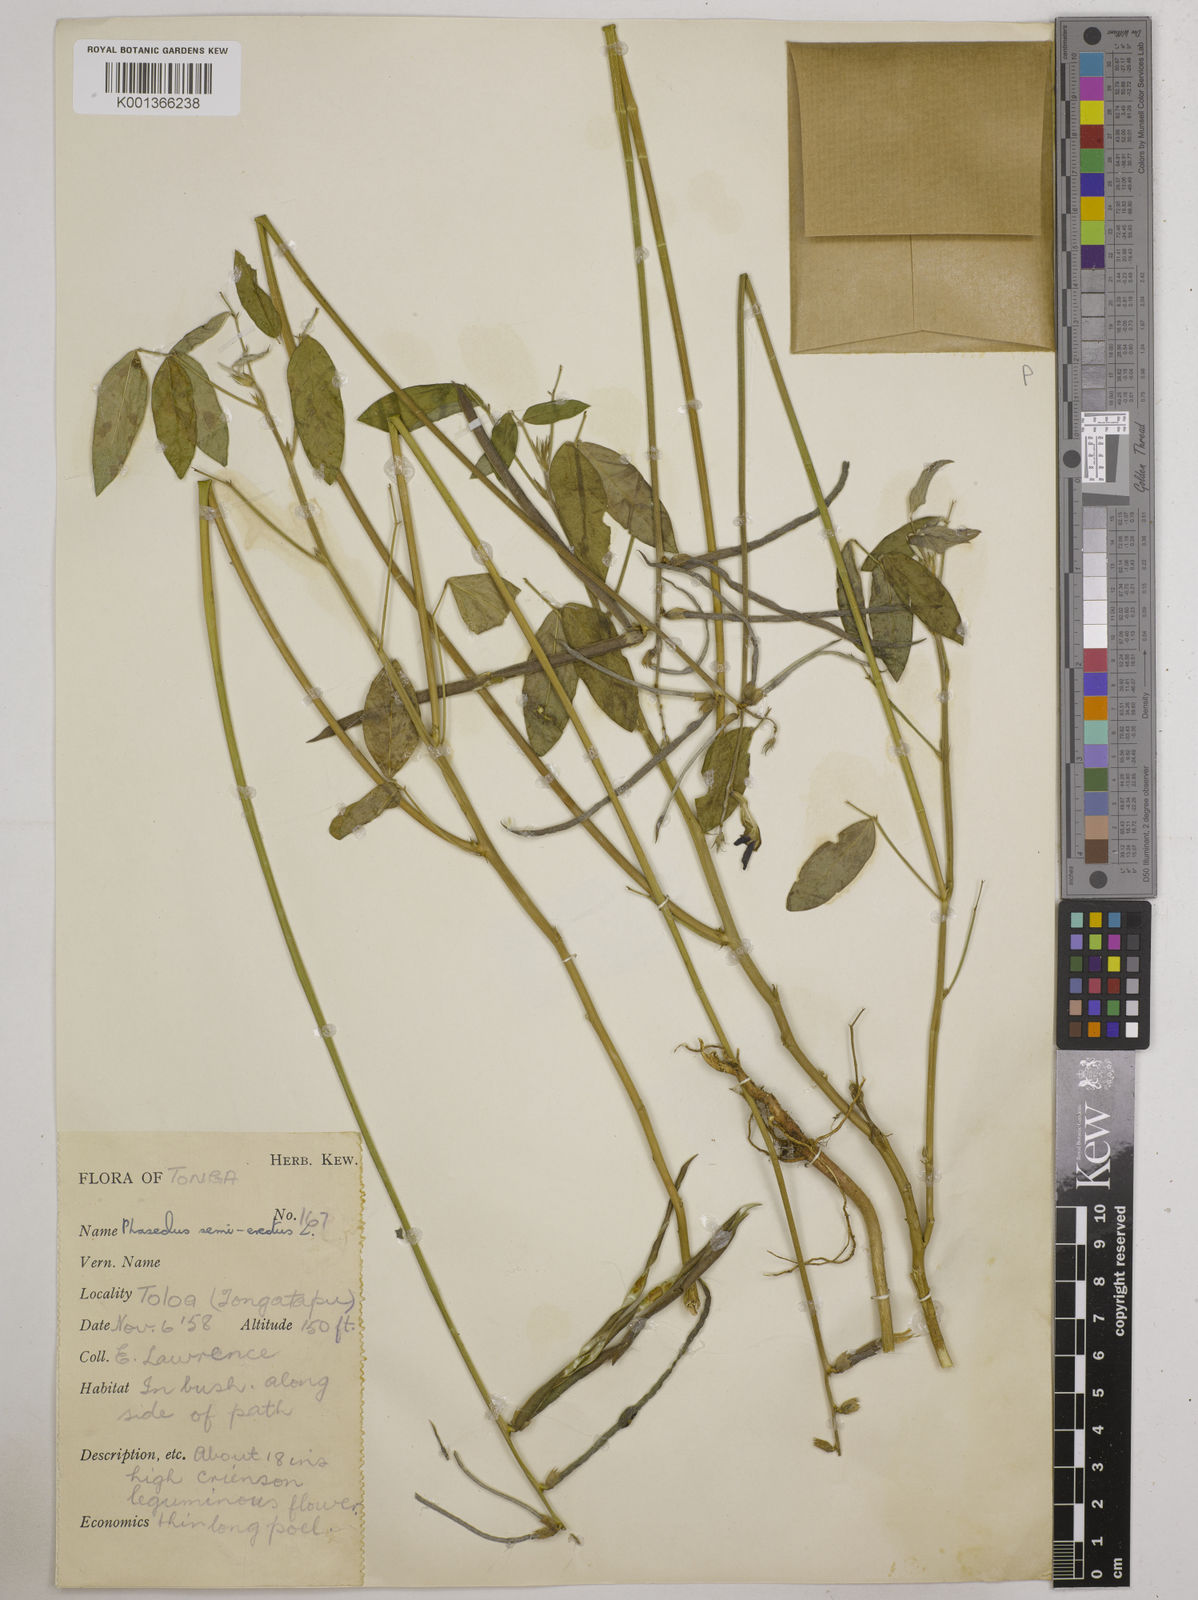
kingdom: Plantae
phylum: Tracheophyta
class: Magnoliopsida
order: Fabales
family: Fabaceae
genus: Macroptilium
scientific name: Macroptilium lathyroides
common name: Wild bushbean
